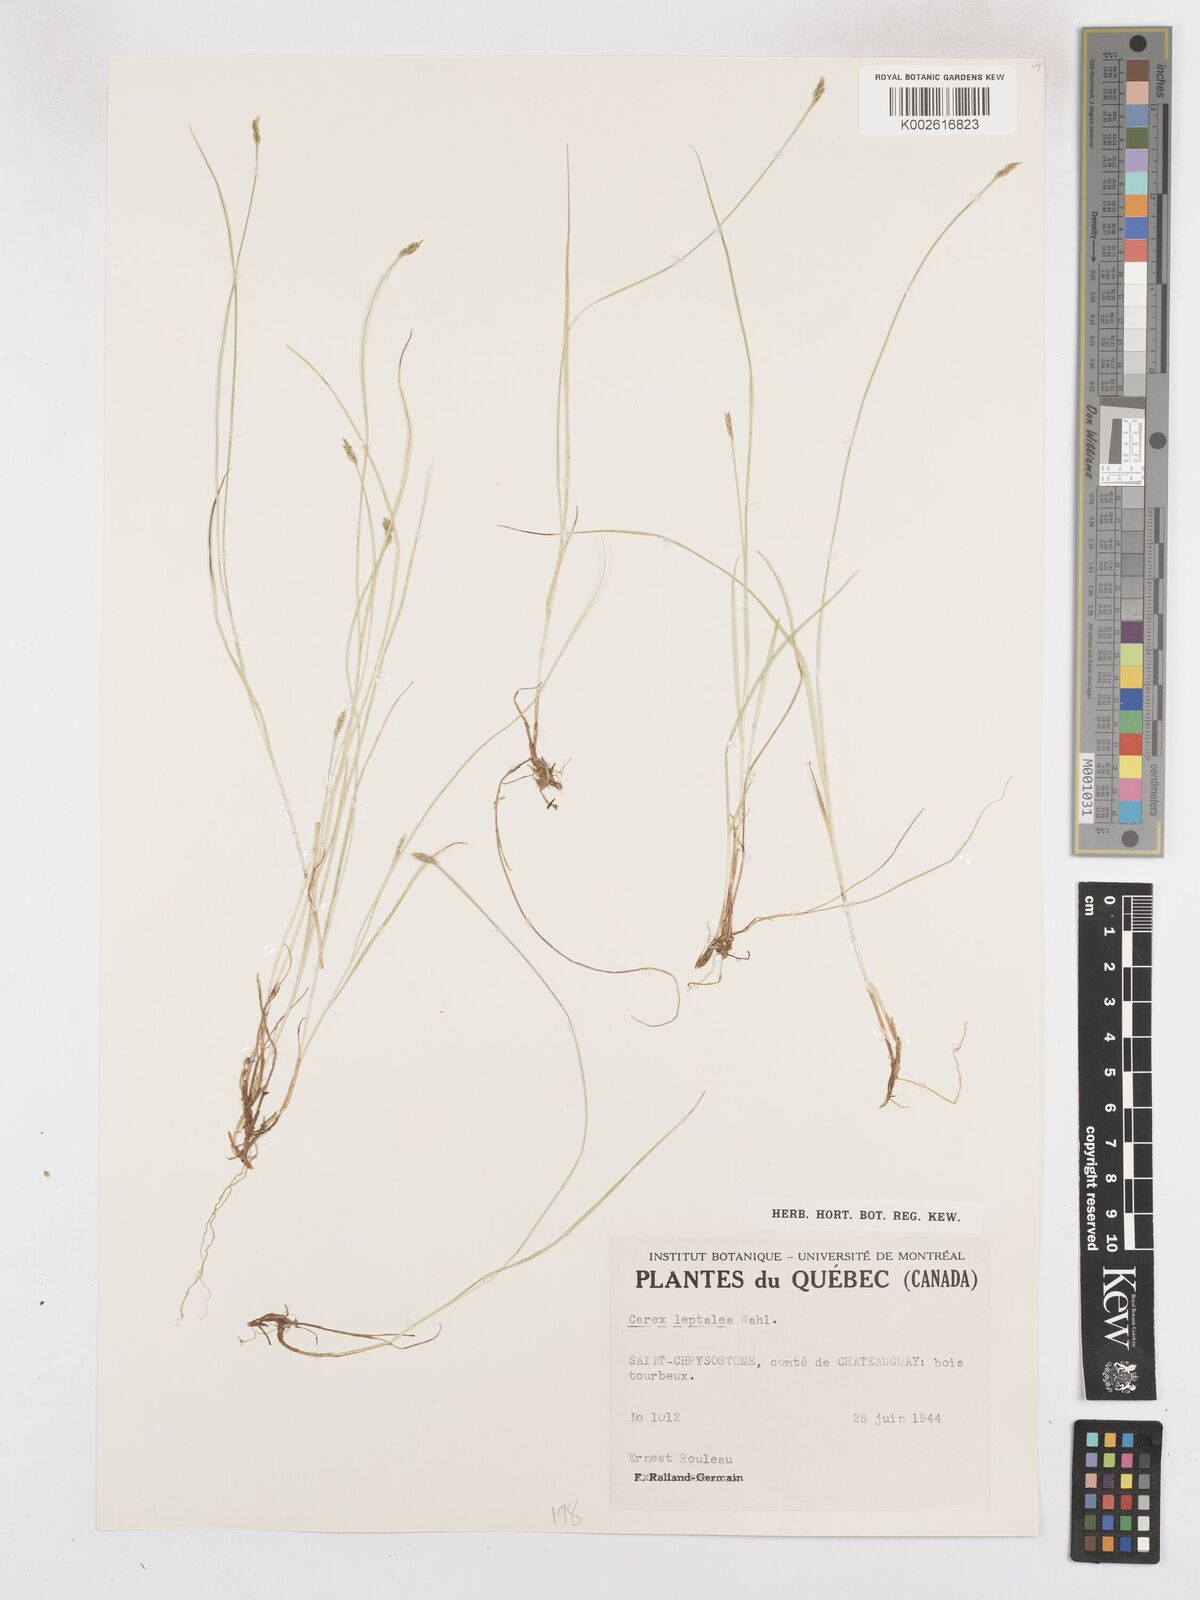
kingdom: Plantae
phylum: Tracheophyta
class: Liliopsida
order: Poales
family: Cyperaceae
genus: Carex
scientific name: Carex leptalea
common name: Bristly-stalked sedge
